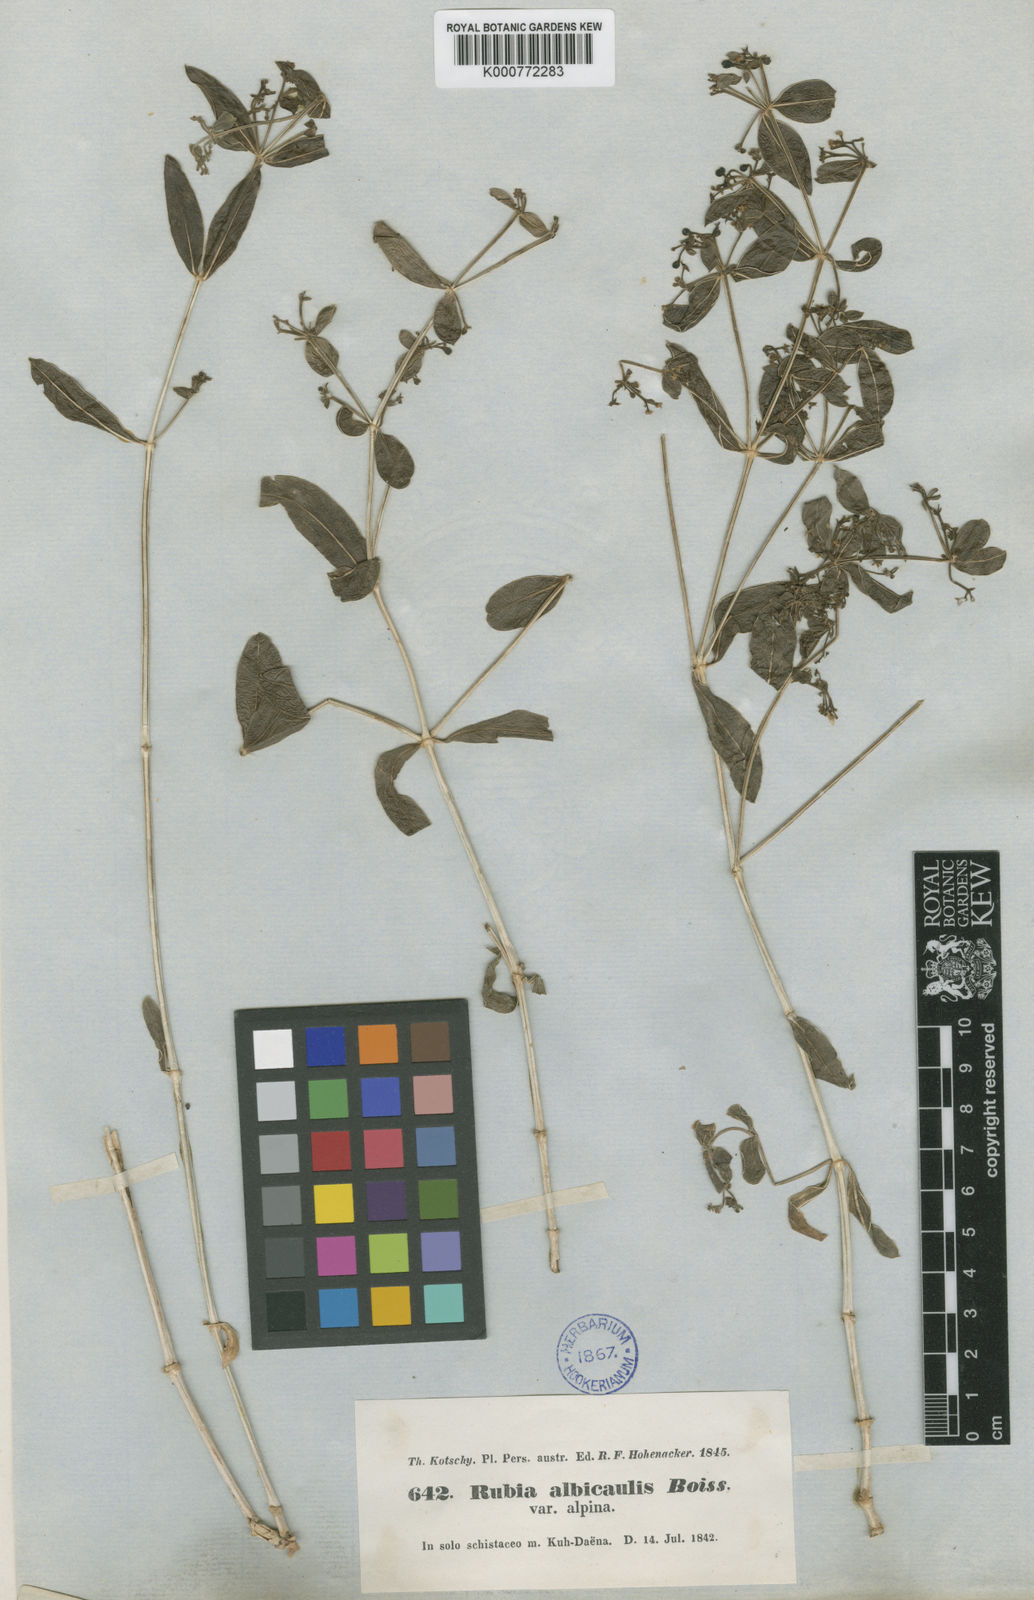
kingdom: Plantae
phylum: Tracheophyta
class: Magnoliopsida
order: Gentianales
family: Rubiaceae
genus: Rubia
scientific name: Rubia albicaulis
